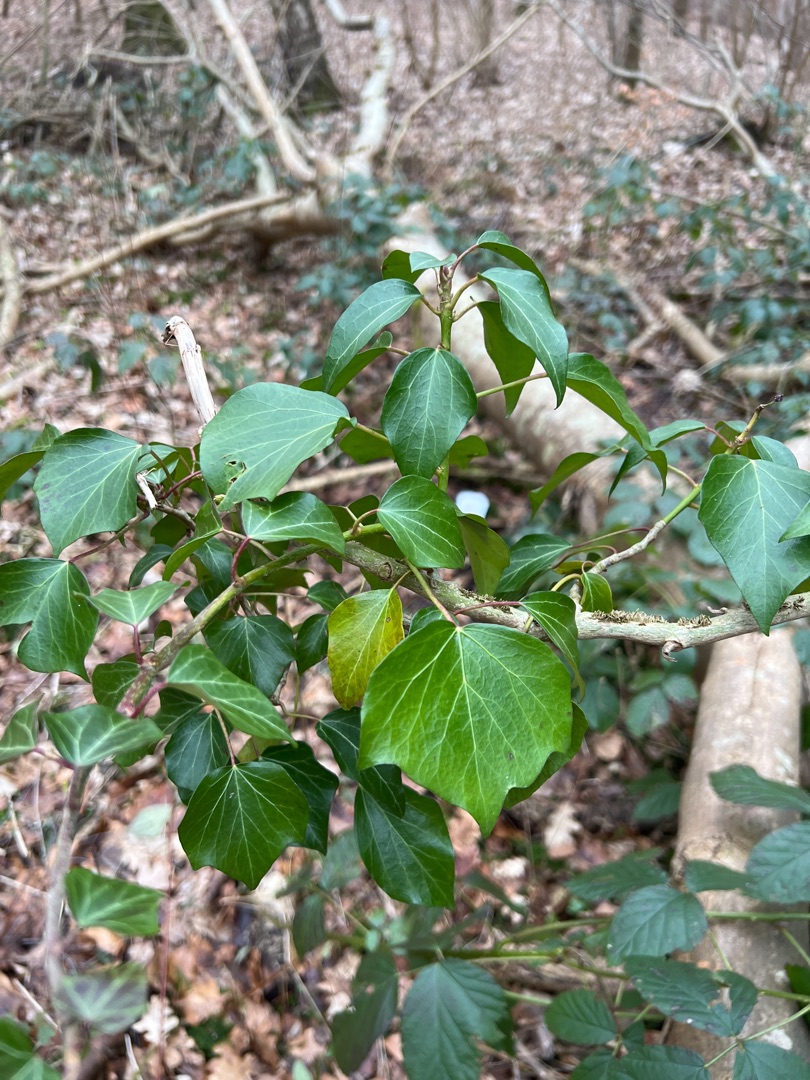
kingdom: Plantae
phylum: Tracheophyta
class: Magnoliopsida
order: Apiales
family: Araliaceae
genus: Hedera
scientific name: Hedera helix
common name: Vedbend
